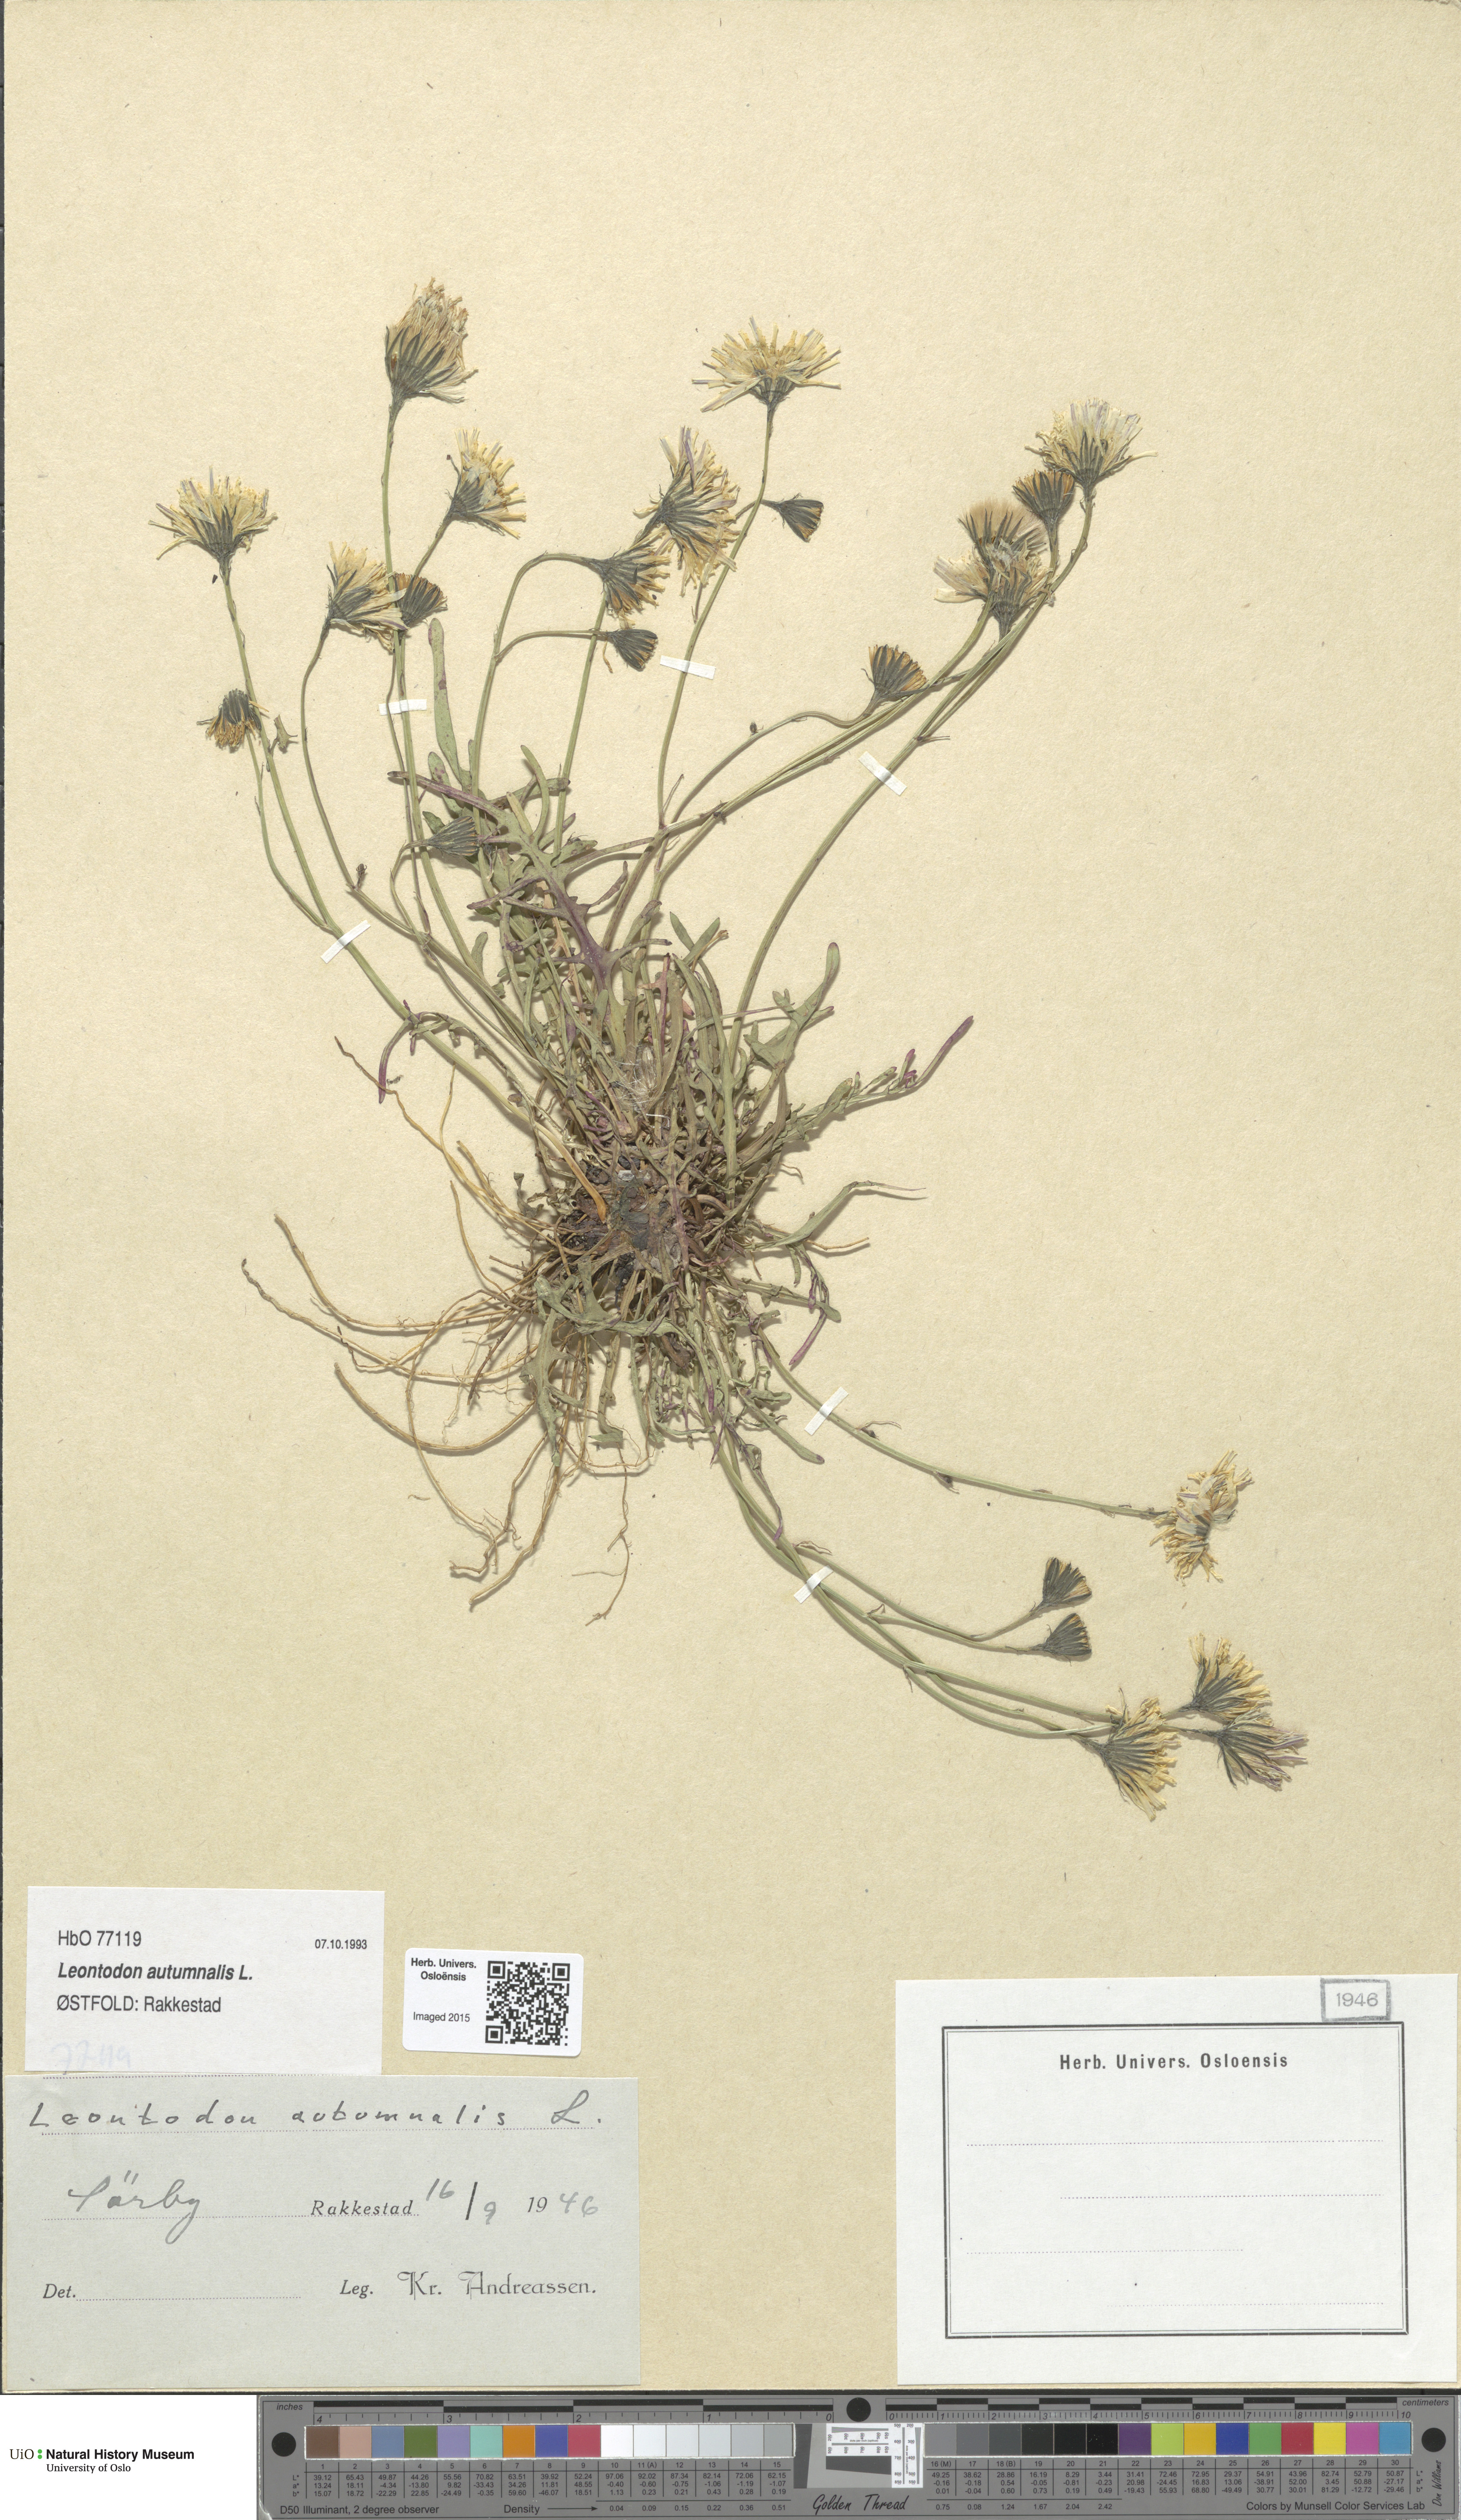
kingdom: Plantae
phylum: Tracheophyta
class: Magnoliopsida
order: Asterales
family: Asteraceae
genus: Scorzoneroides
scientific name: Scorzoneroides autumnalis
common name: Autumn hawkbit
